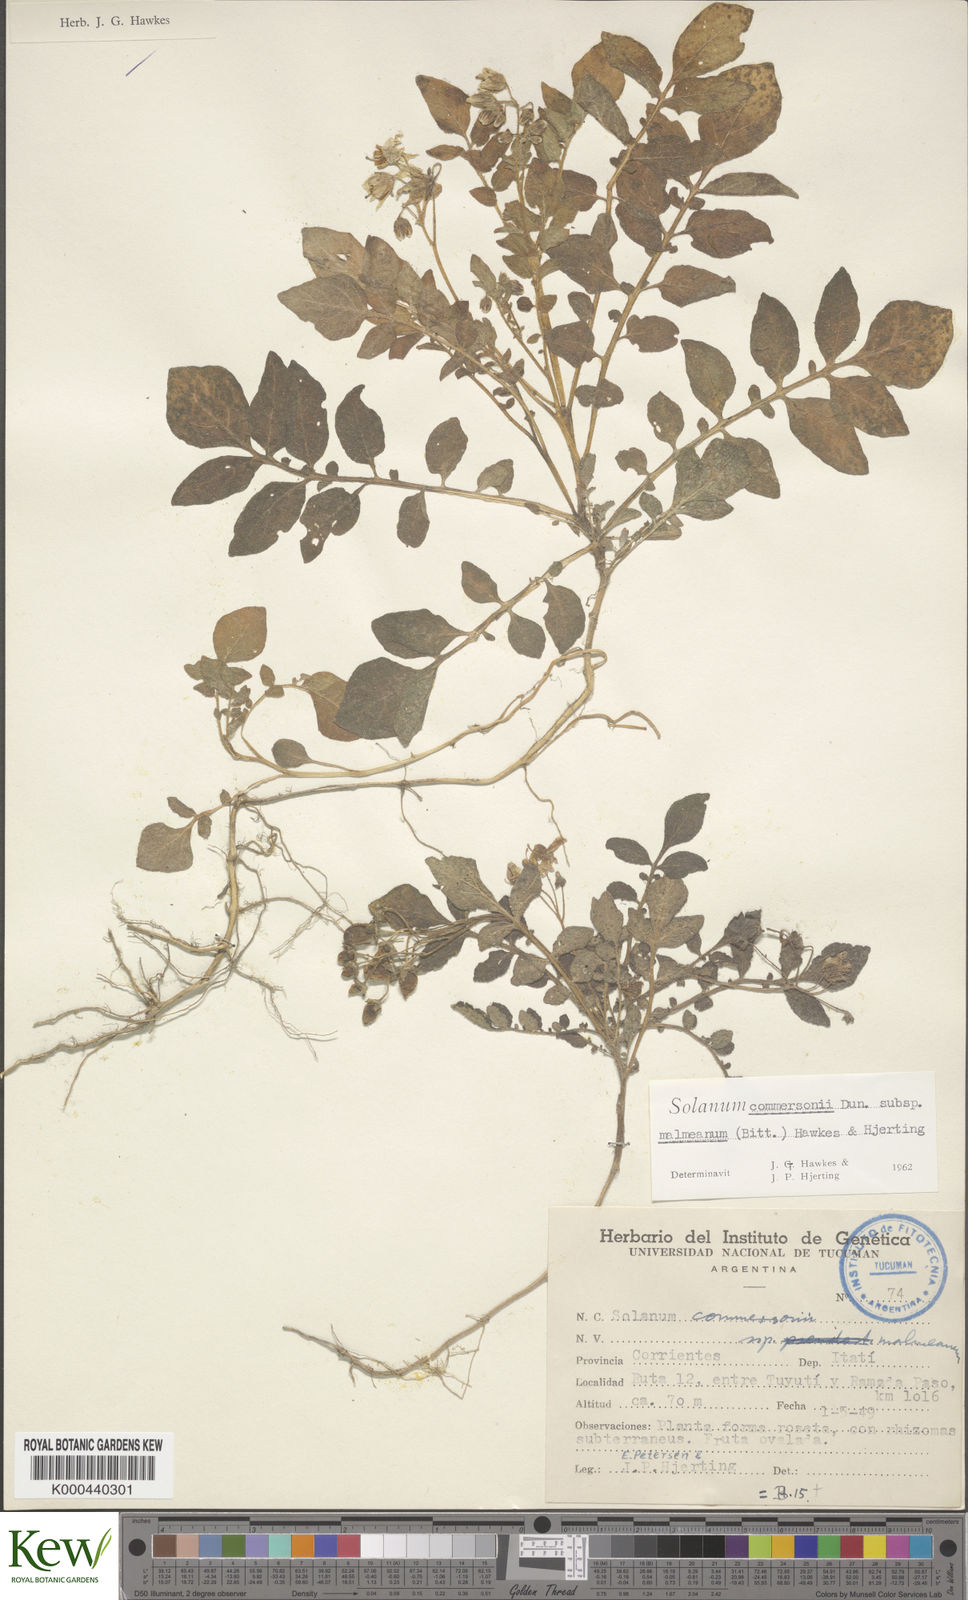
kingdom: Plantae
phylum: Tracheophyta
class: Magnoliopsida
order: Solanales
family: Solanaceae
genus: Solanum
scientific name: Solanum malmeanum
